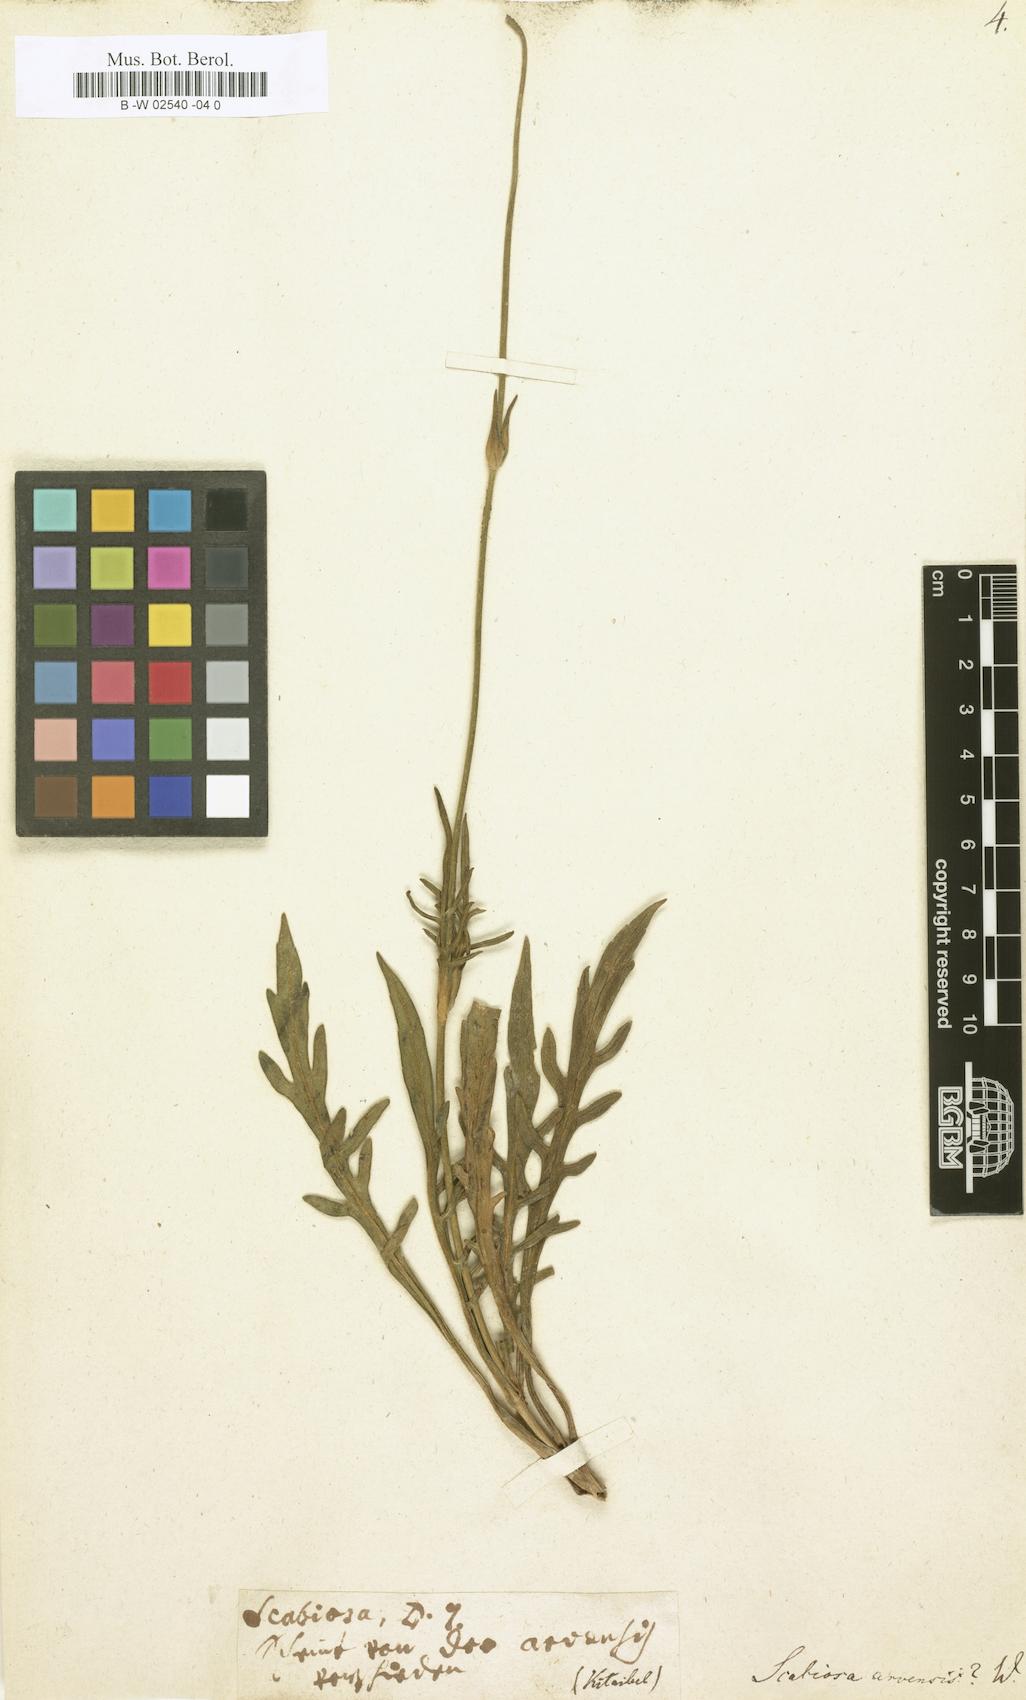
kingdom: Plantae
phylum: Tracheophyta
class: Magnoliopsida
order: Dipsacales
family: Caprifoliaceae
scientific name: Caprifoliaceae
